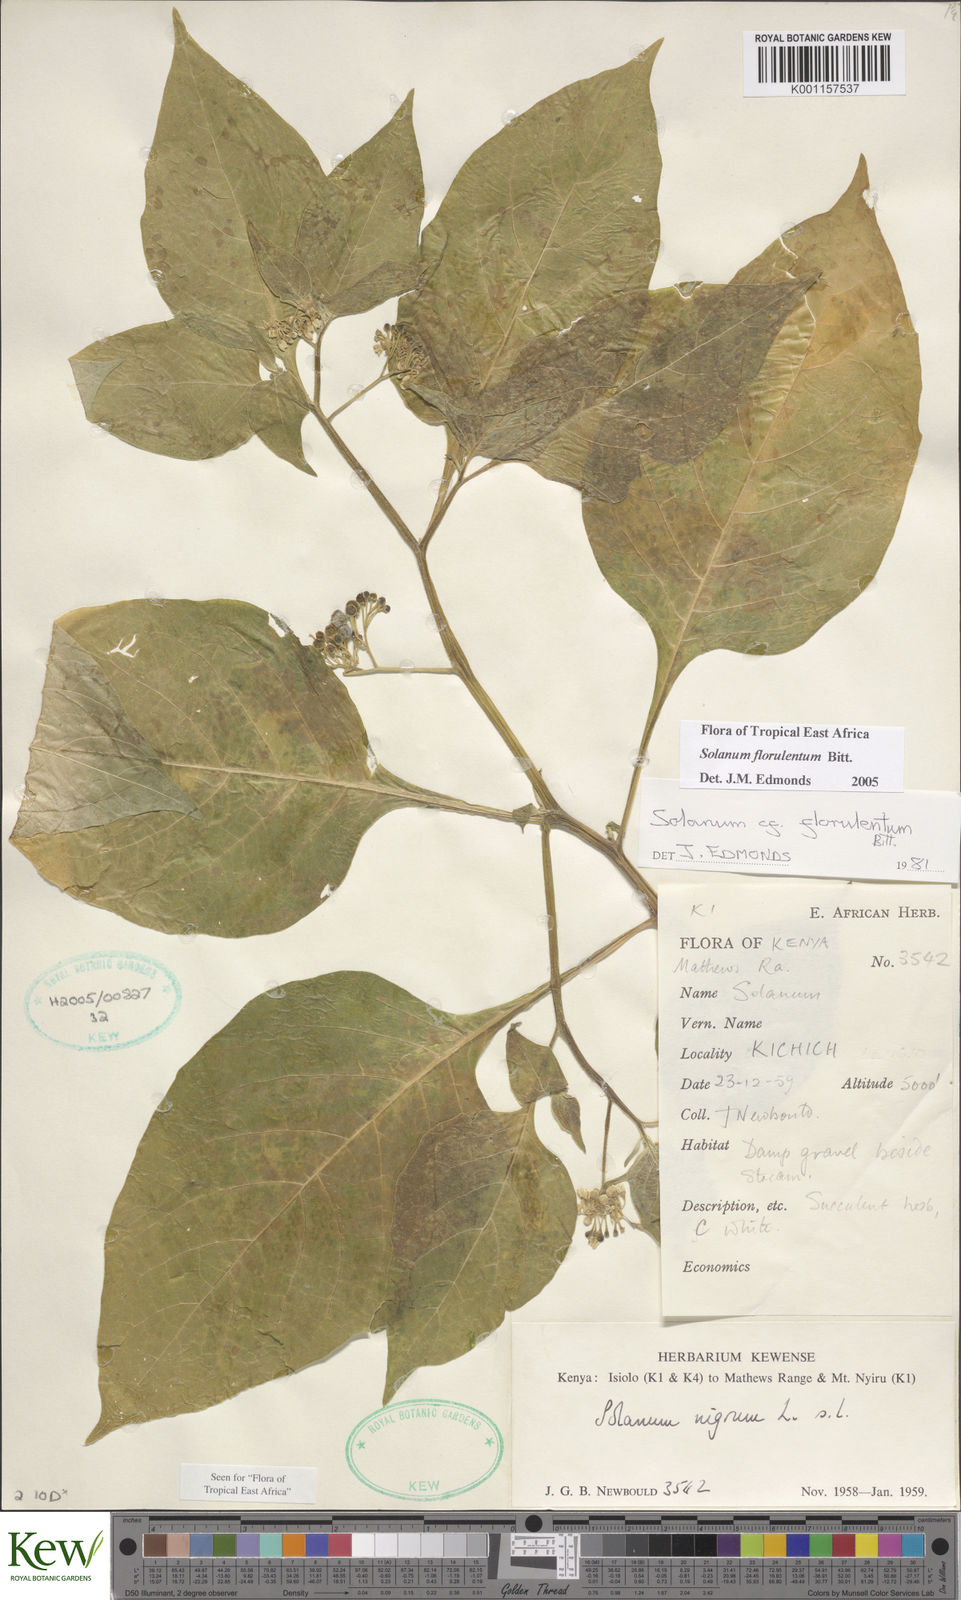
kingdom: Plantae
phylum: Tracheophyta
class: Magnoliopsida
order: Solanales
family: Solanaceae
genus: Solanum
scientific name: Solanum tarderemotum
